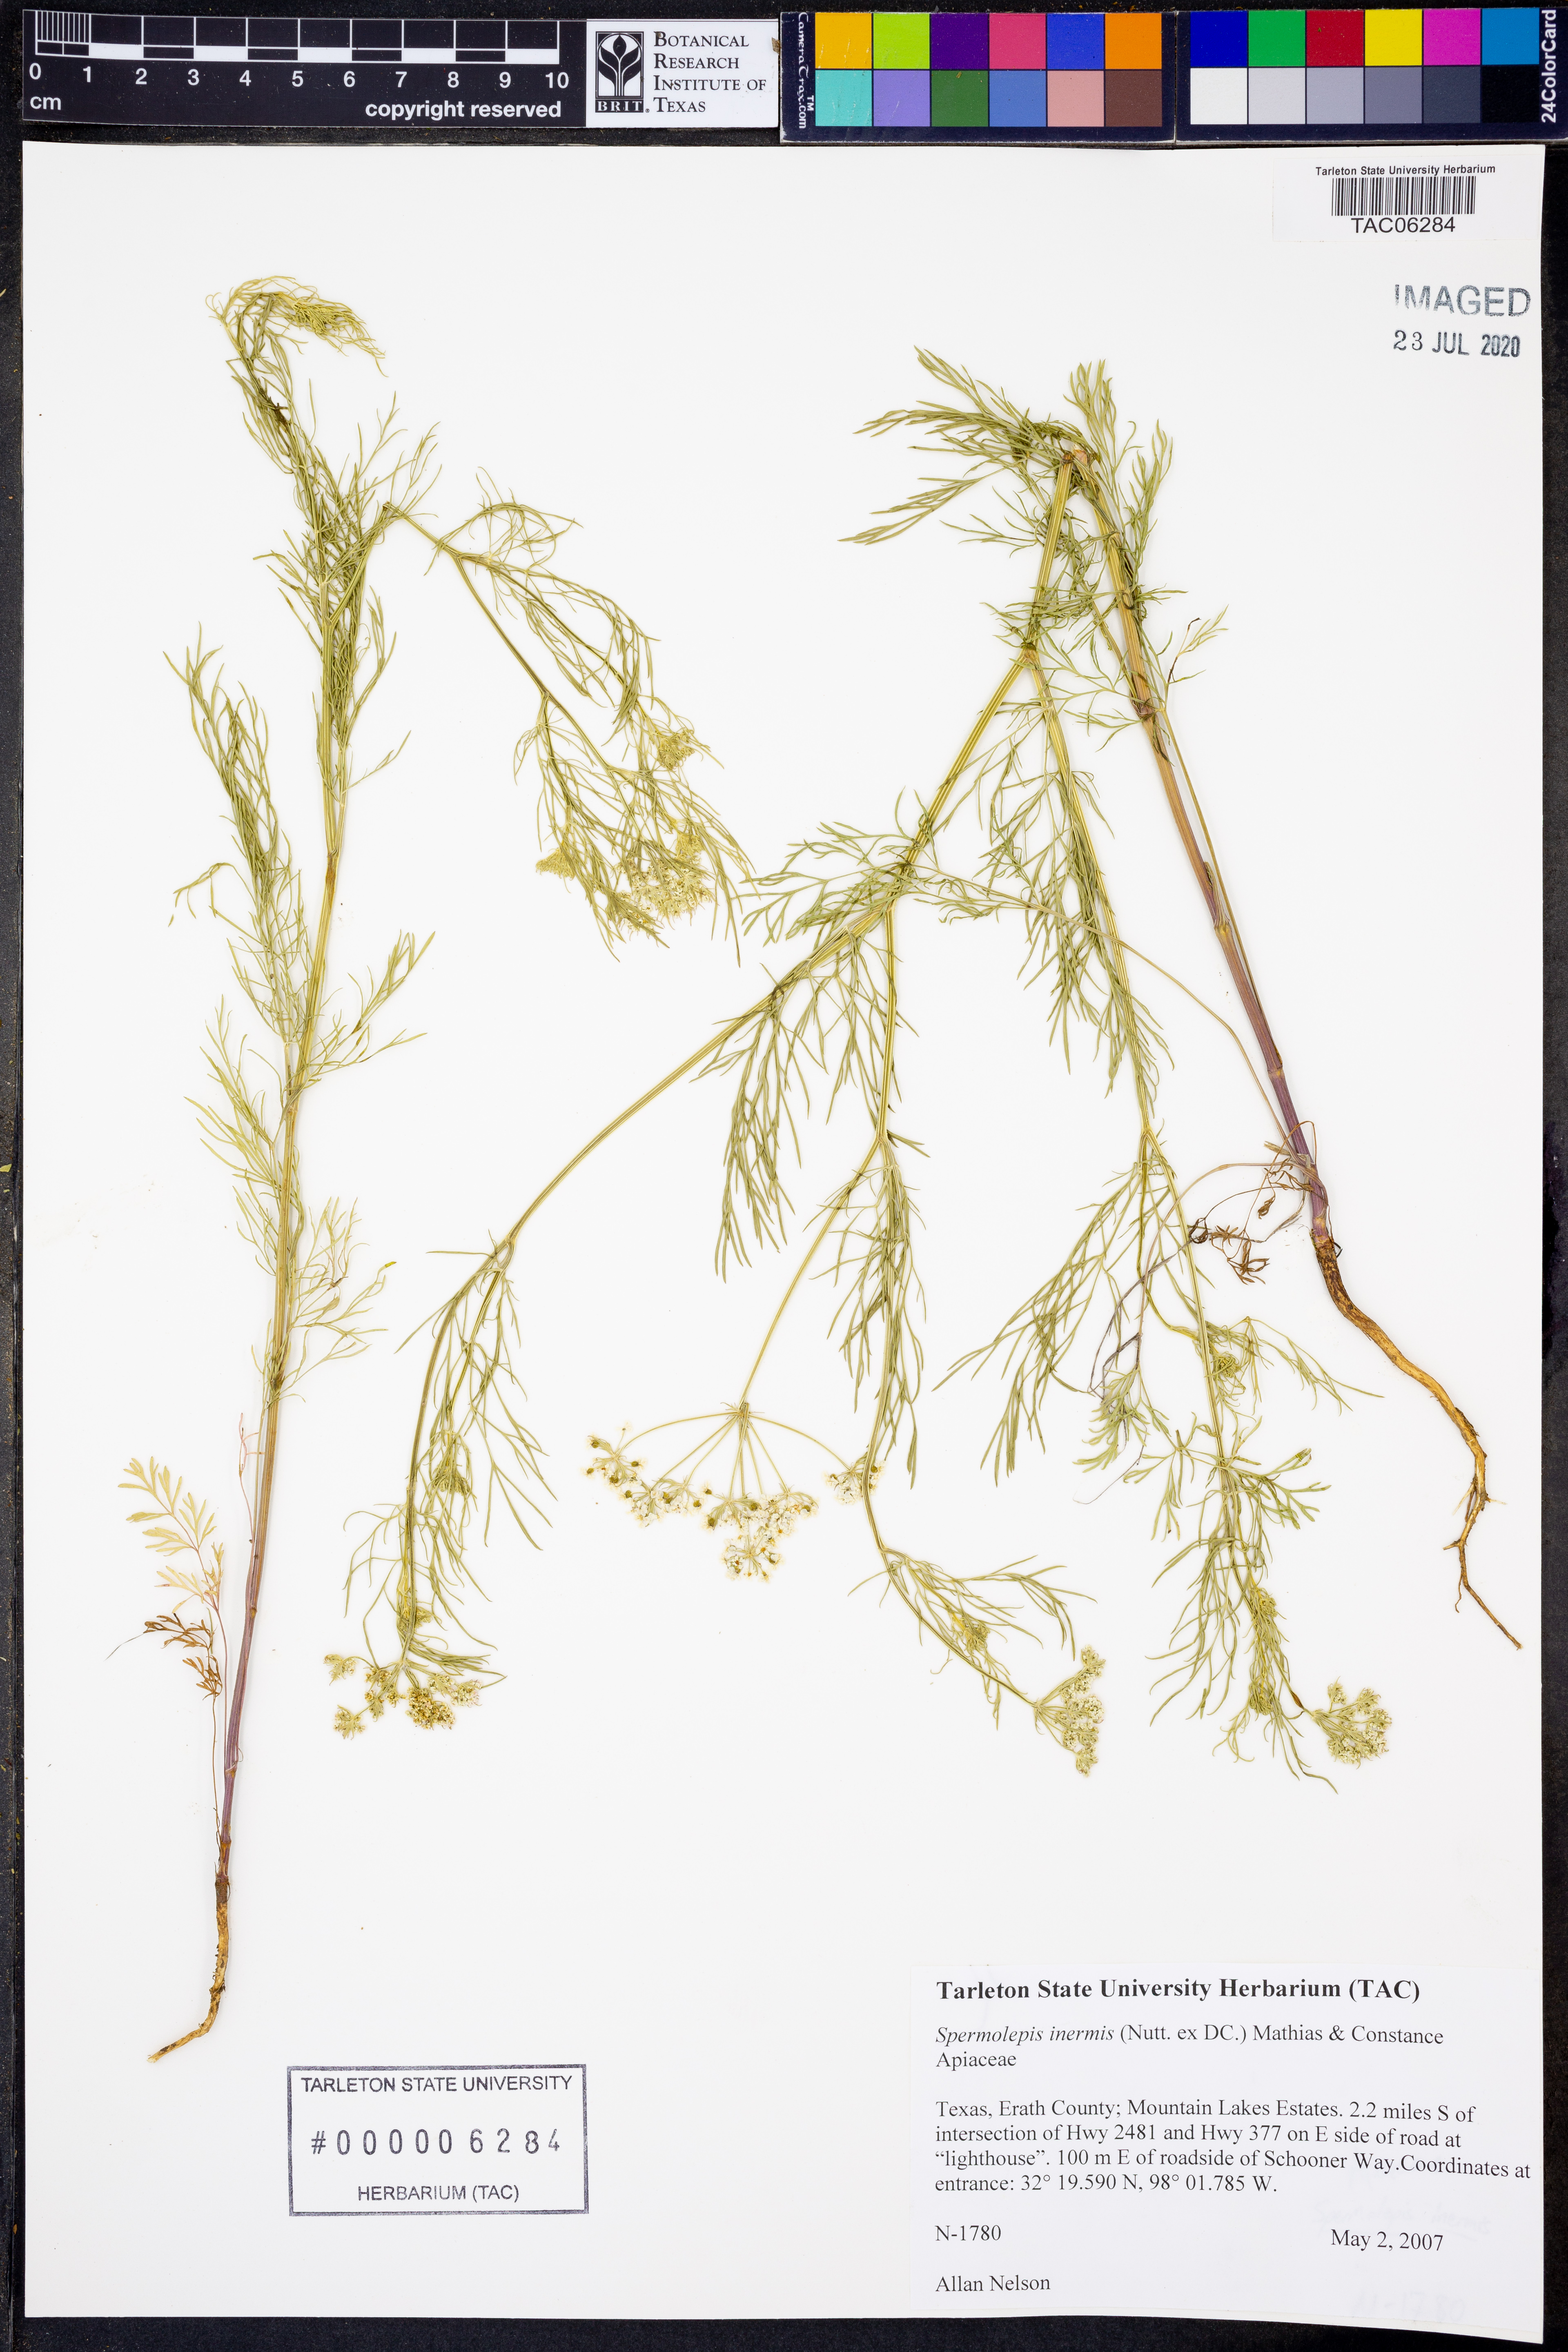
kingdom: Plantae
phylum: Tracheophyta
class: Magnoliopsida
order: Apiales
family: Apiaceae
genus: Spermolepis
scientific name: Spermolepis inermis
